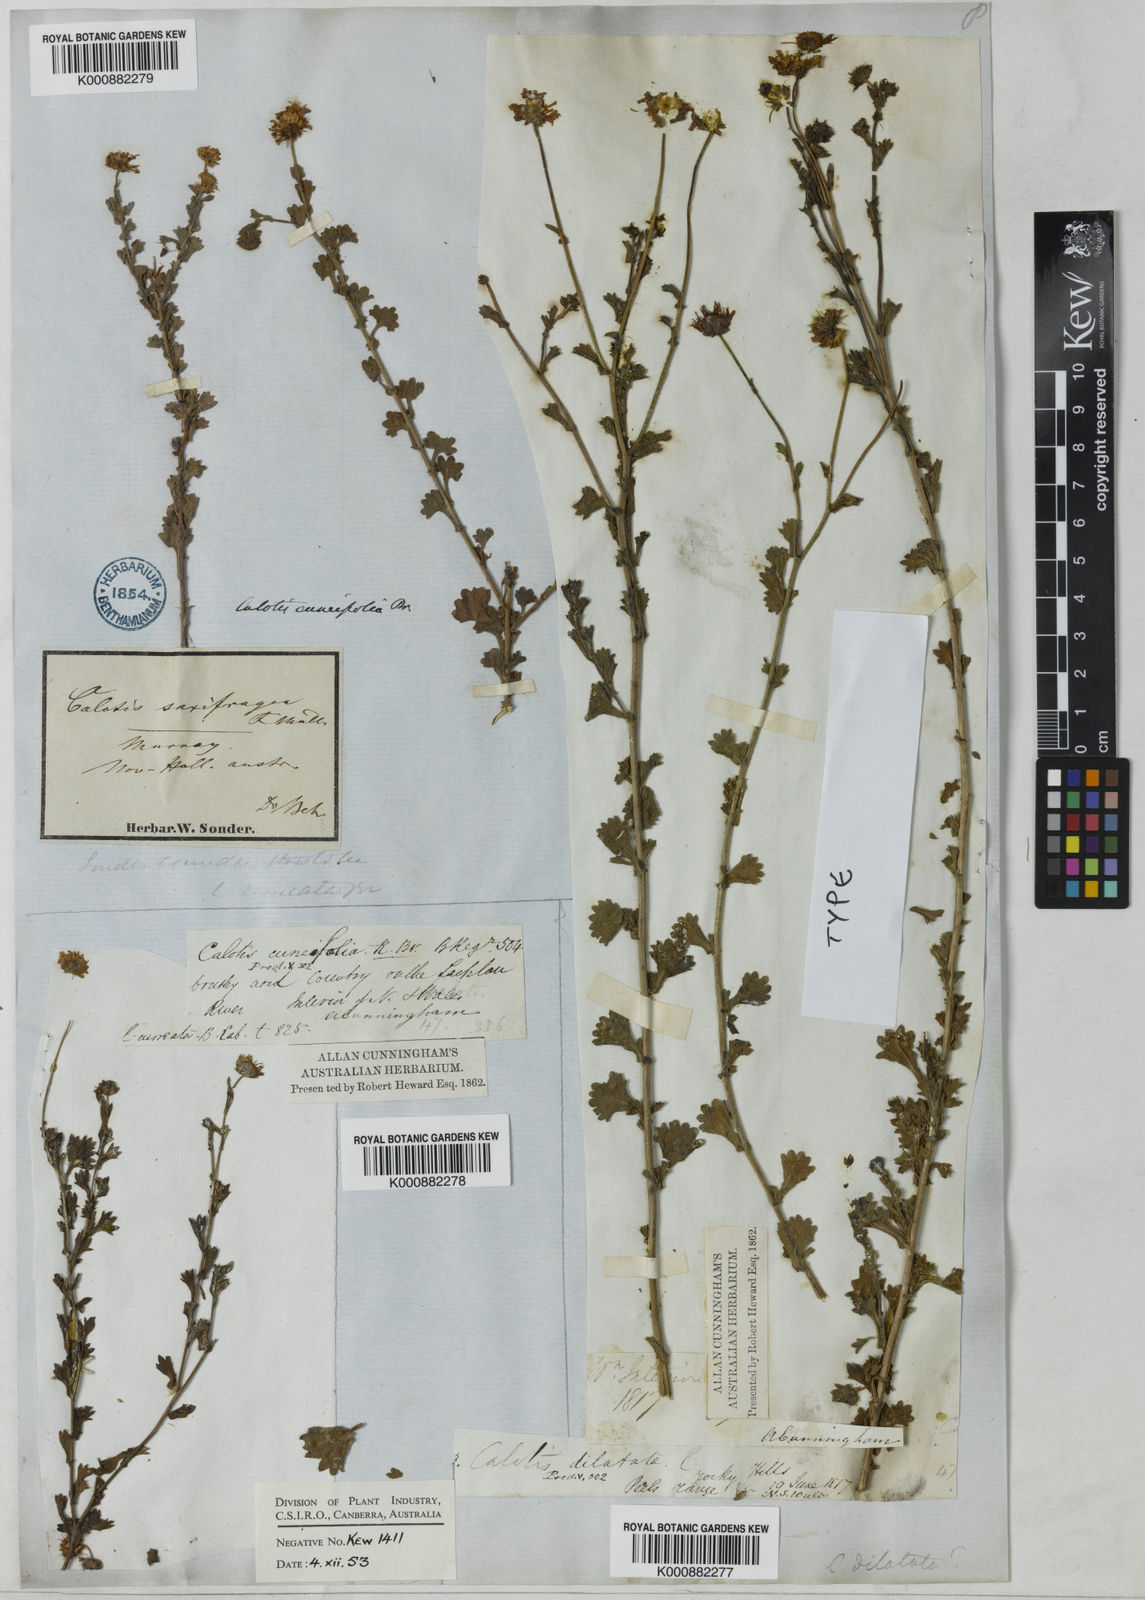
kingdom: Plantae
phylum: Tracheophyta
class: Magnoliopsida
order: Asterales
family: Asteraceae
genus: Calotis
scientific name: Calotis cuneifolia
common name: Bur-daisy
